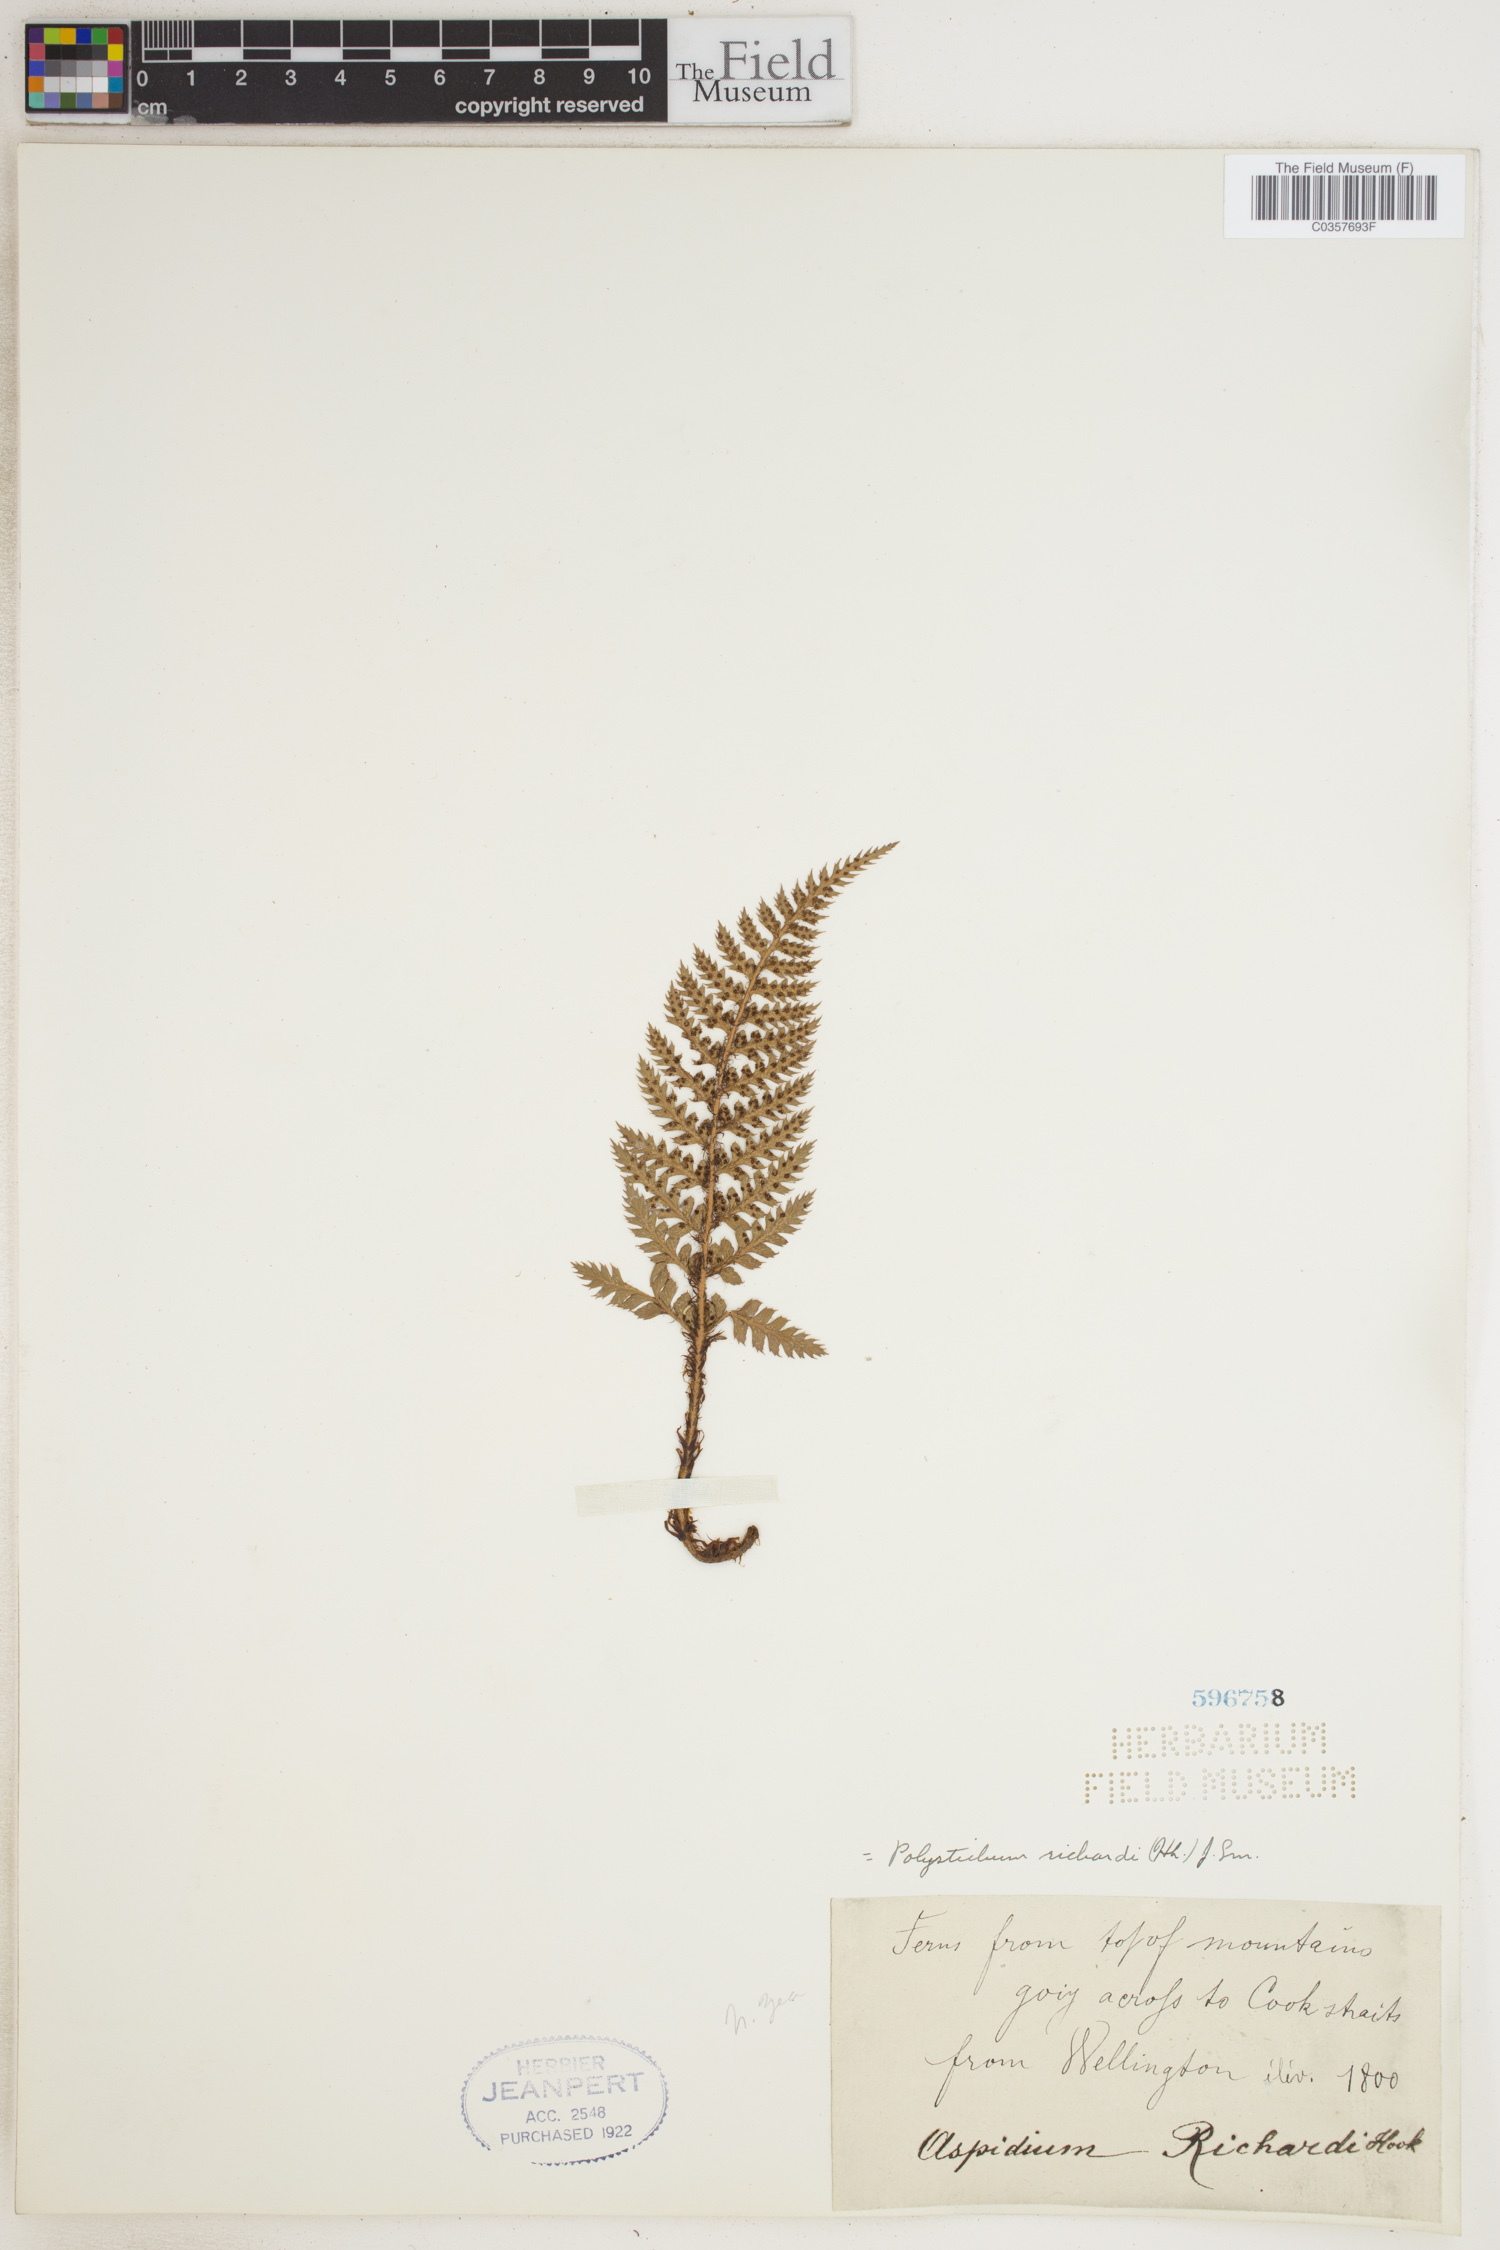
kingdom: Plantae
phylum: Tracheophyta
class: Polypodiopsida
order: Polypodiales
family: Dryopteridaceae
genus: Polystichum
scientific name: Polystichum neozelandicum
